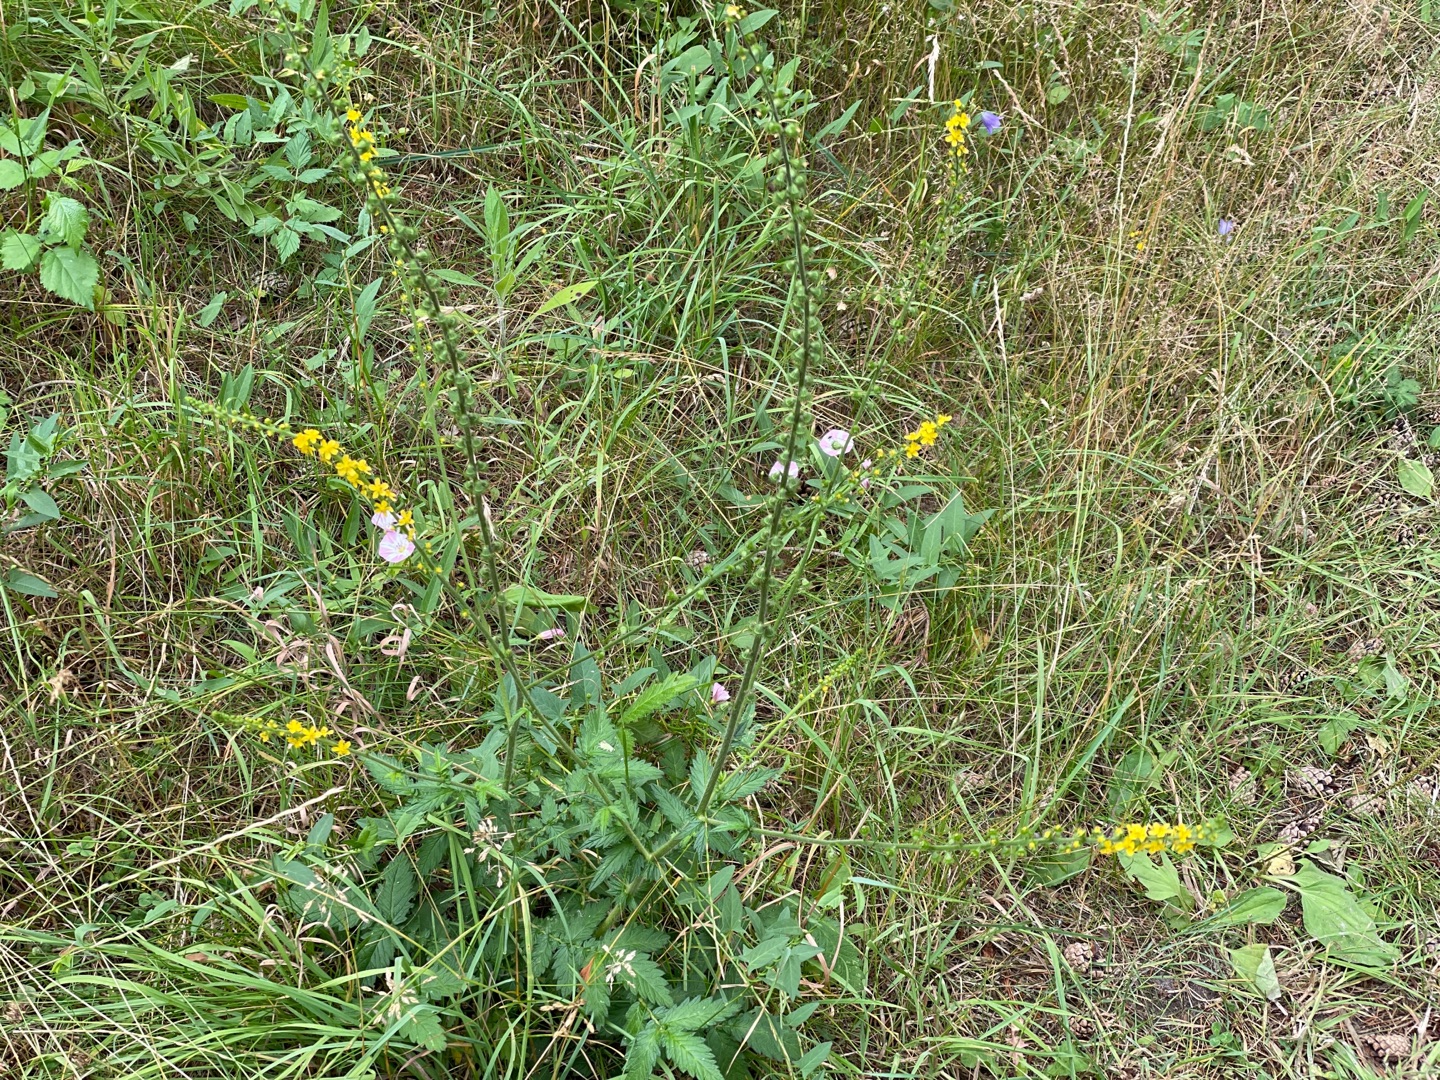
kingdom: Plantae
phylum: Tracheophyta
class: Magnoliopsida
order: Rosales
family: Rosaceae
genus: Agrimonia
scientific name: Agrimonia eupatoria
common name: Almindelig agermåne
